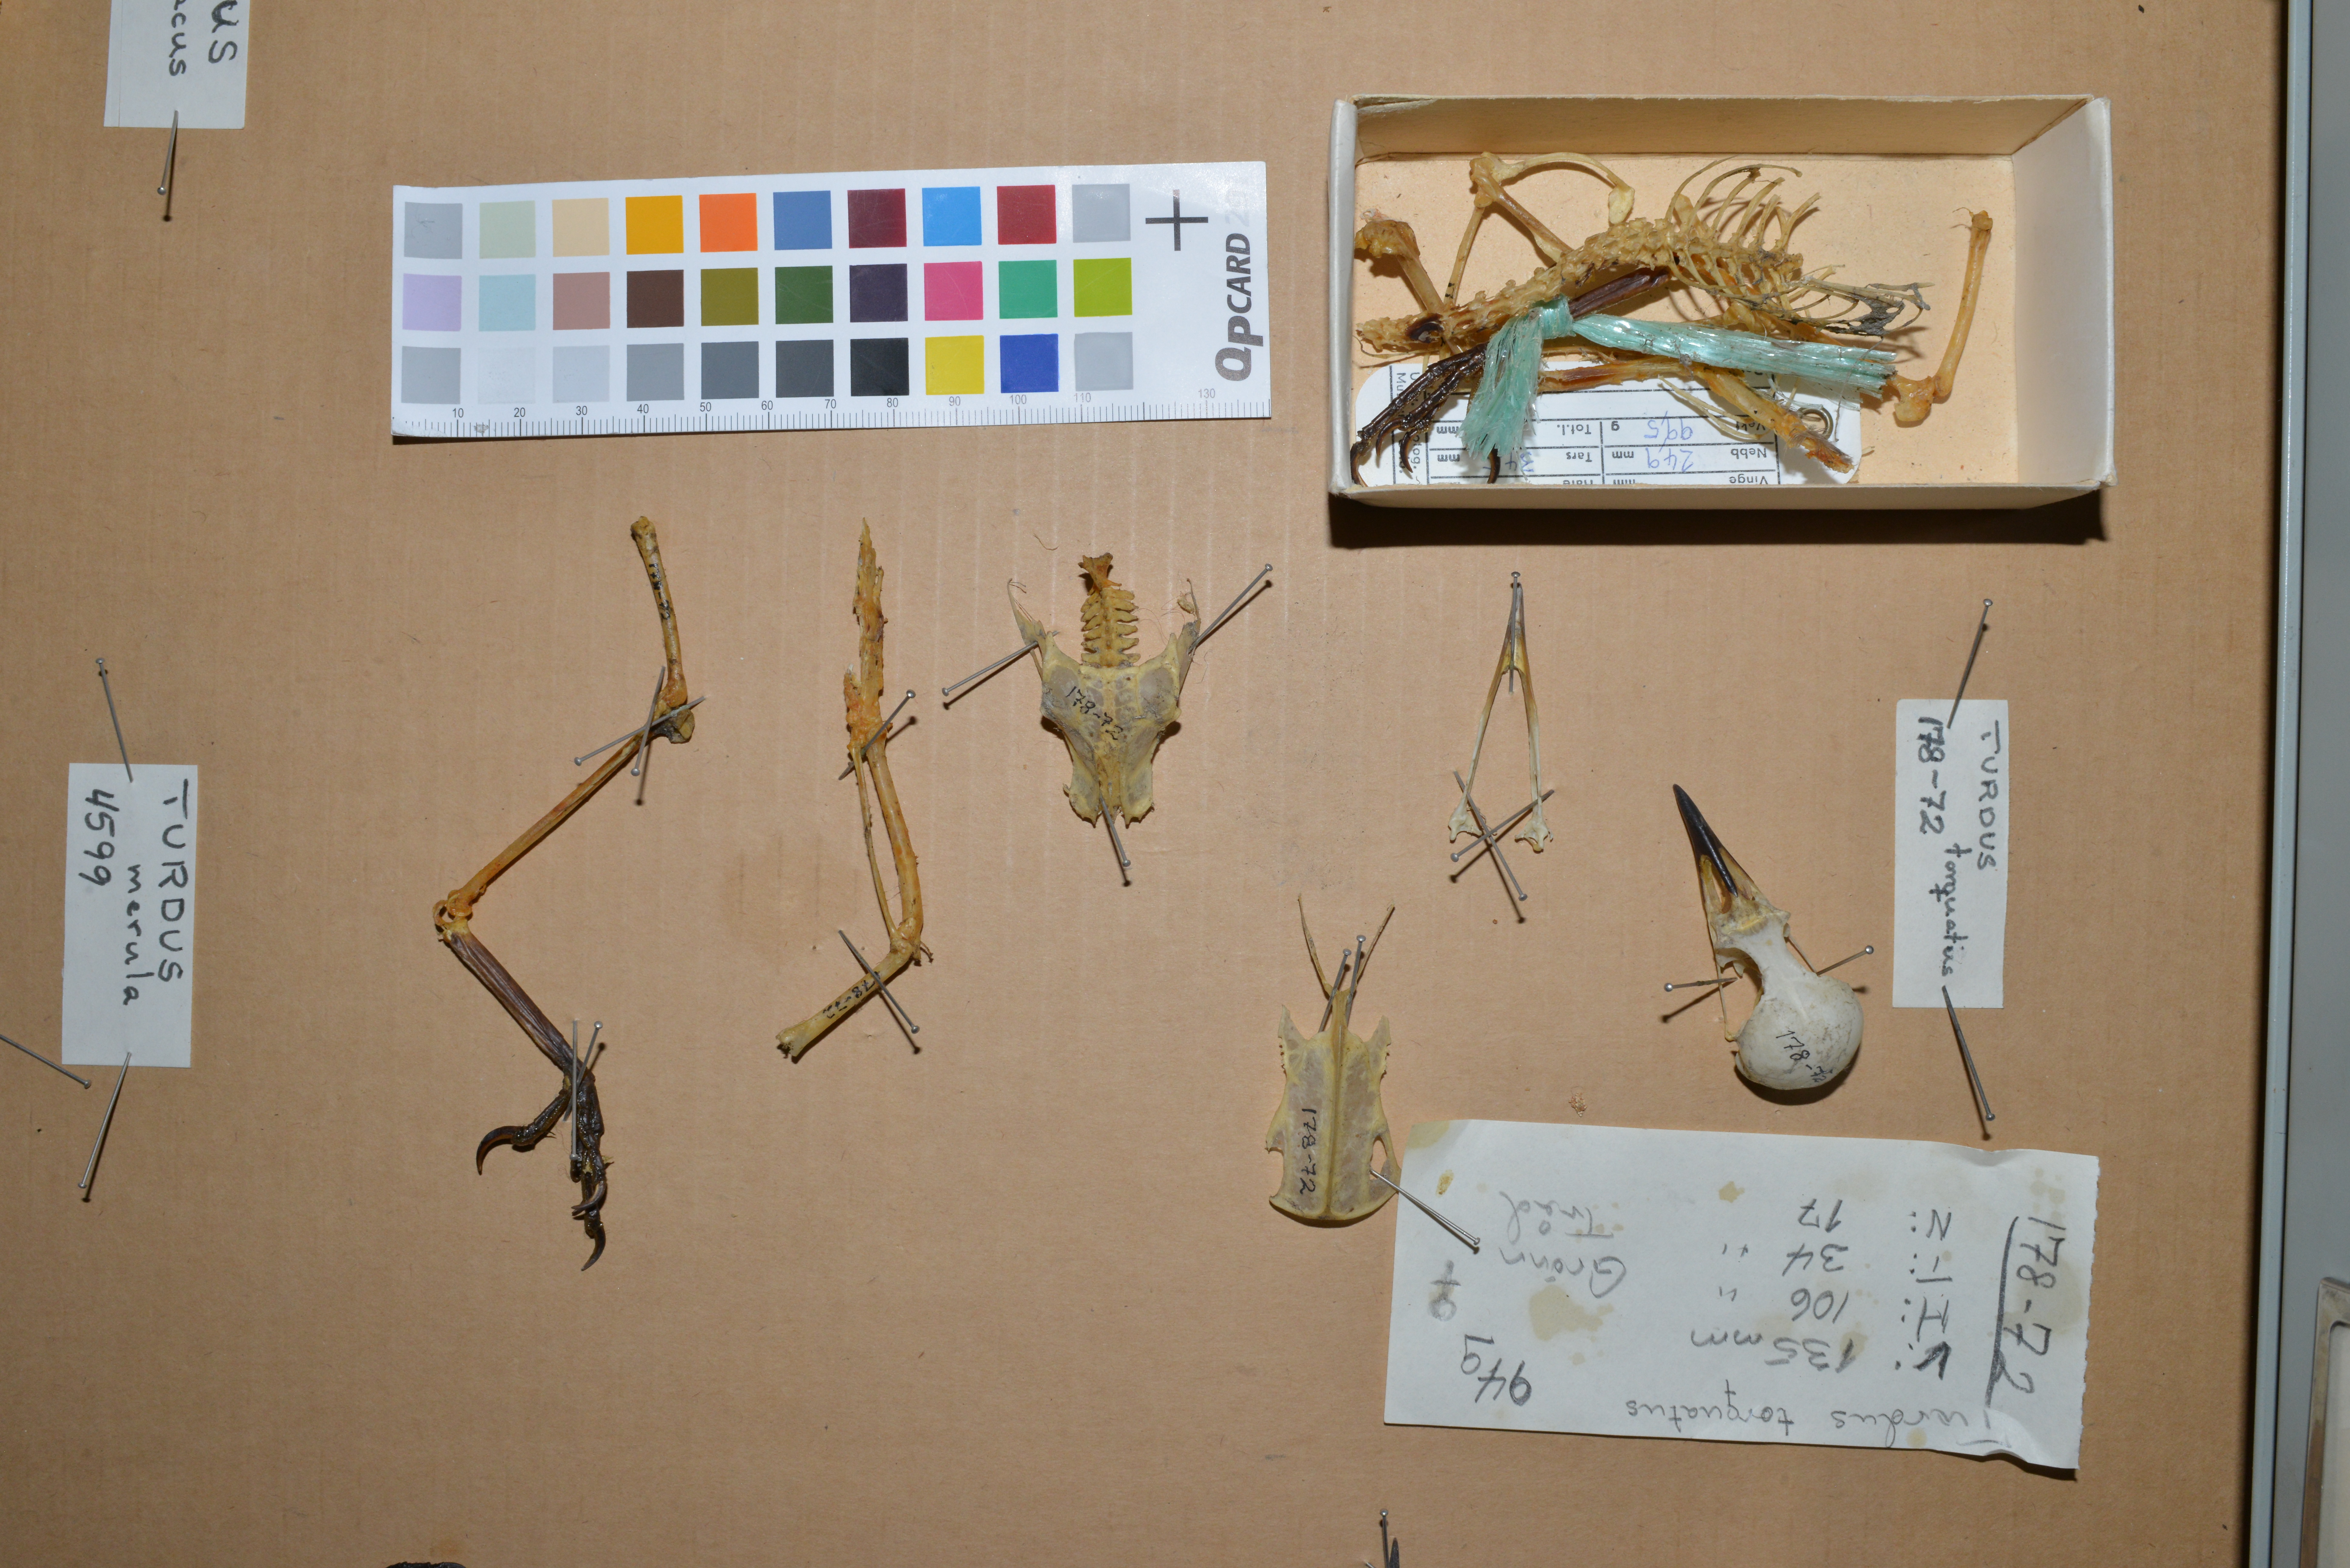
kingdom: Animalia
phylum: Chordata
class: Aves
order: Passeriformes
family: Turdidae
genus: Turdus
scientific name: Turdus torquatus
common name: Ring ouzel
